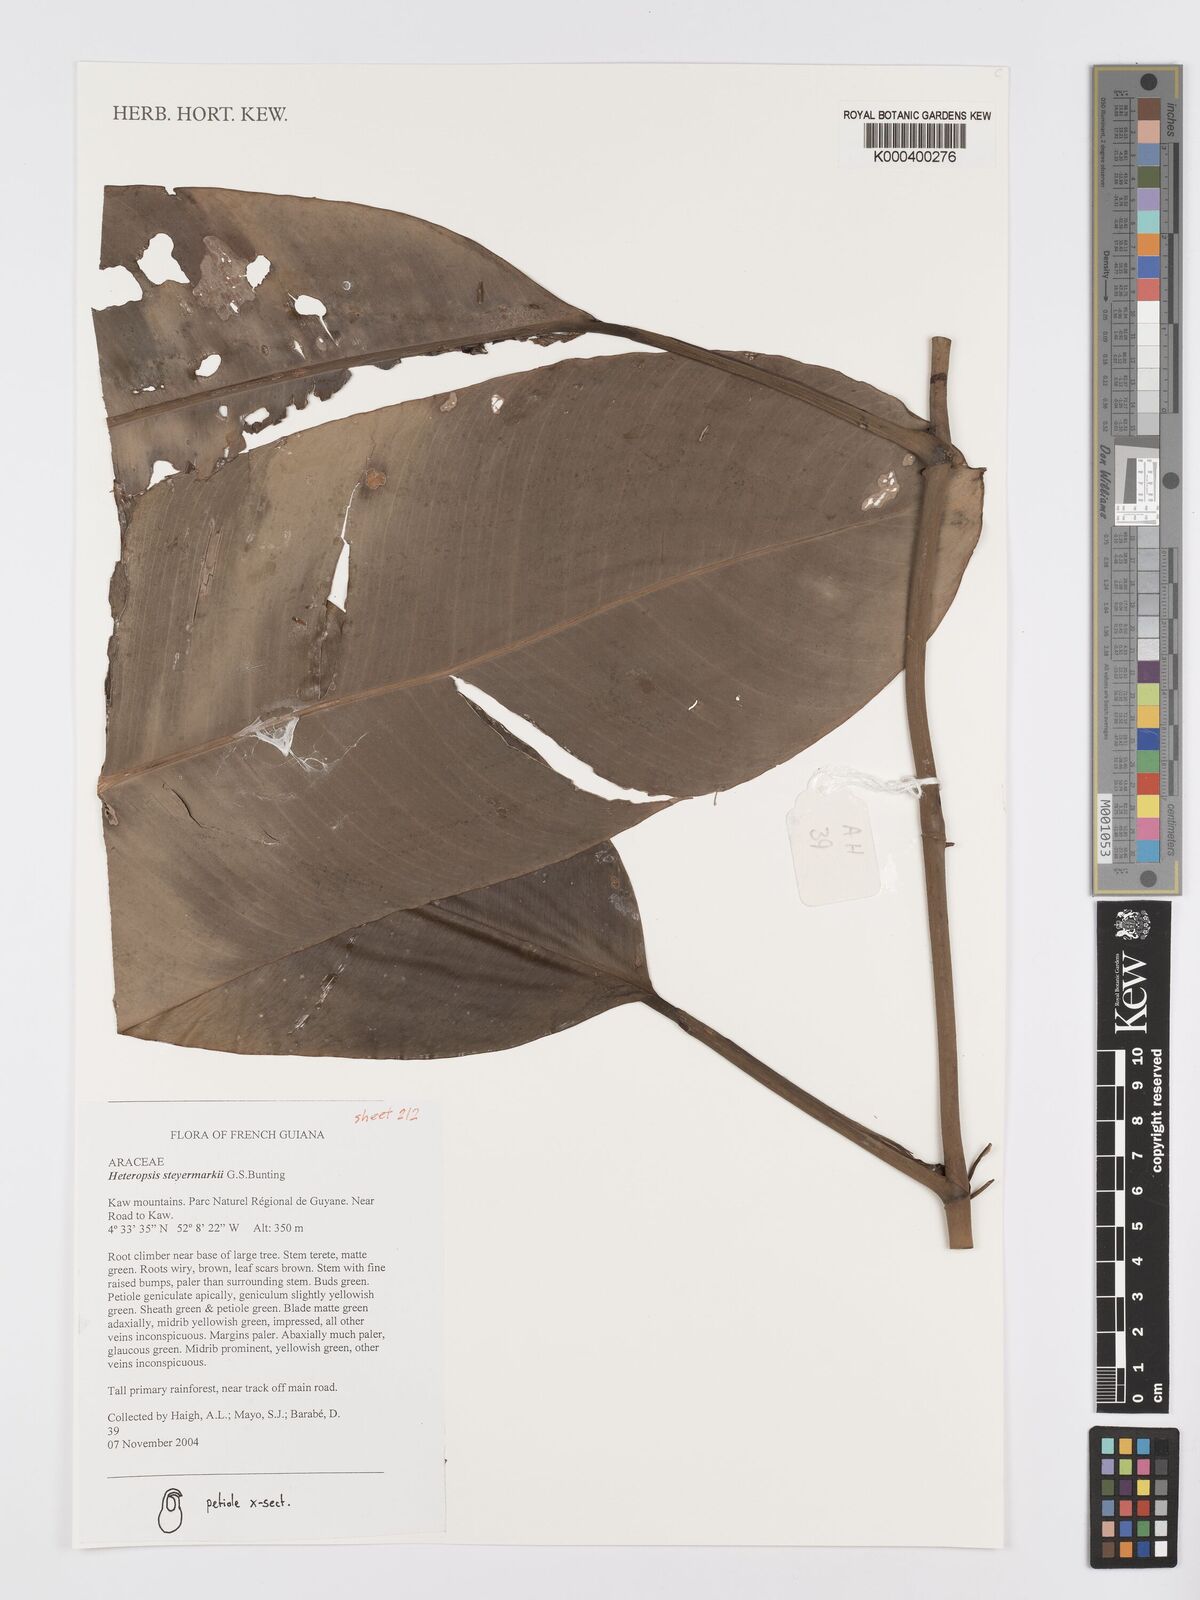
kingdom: Plantae
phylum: Tracheophyta
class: Liliopsida
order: Alismatales
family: Araceae
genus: Heteropsis
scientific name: Heteropsis steyermarkii
